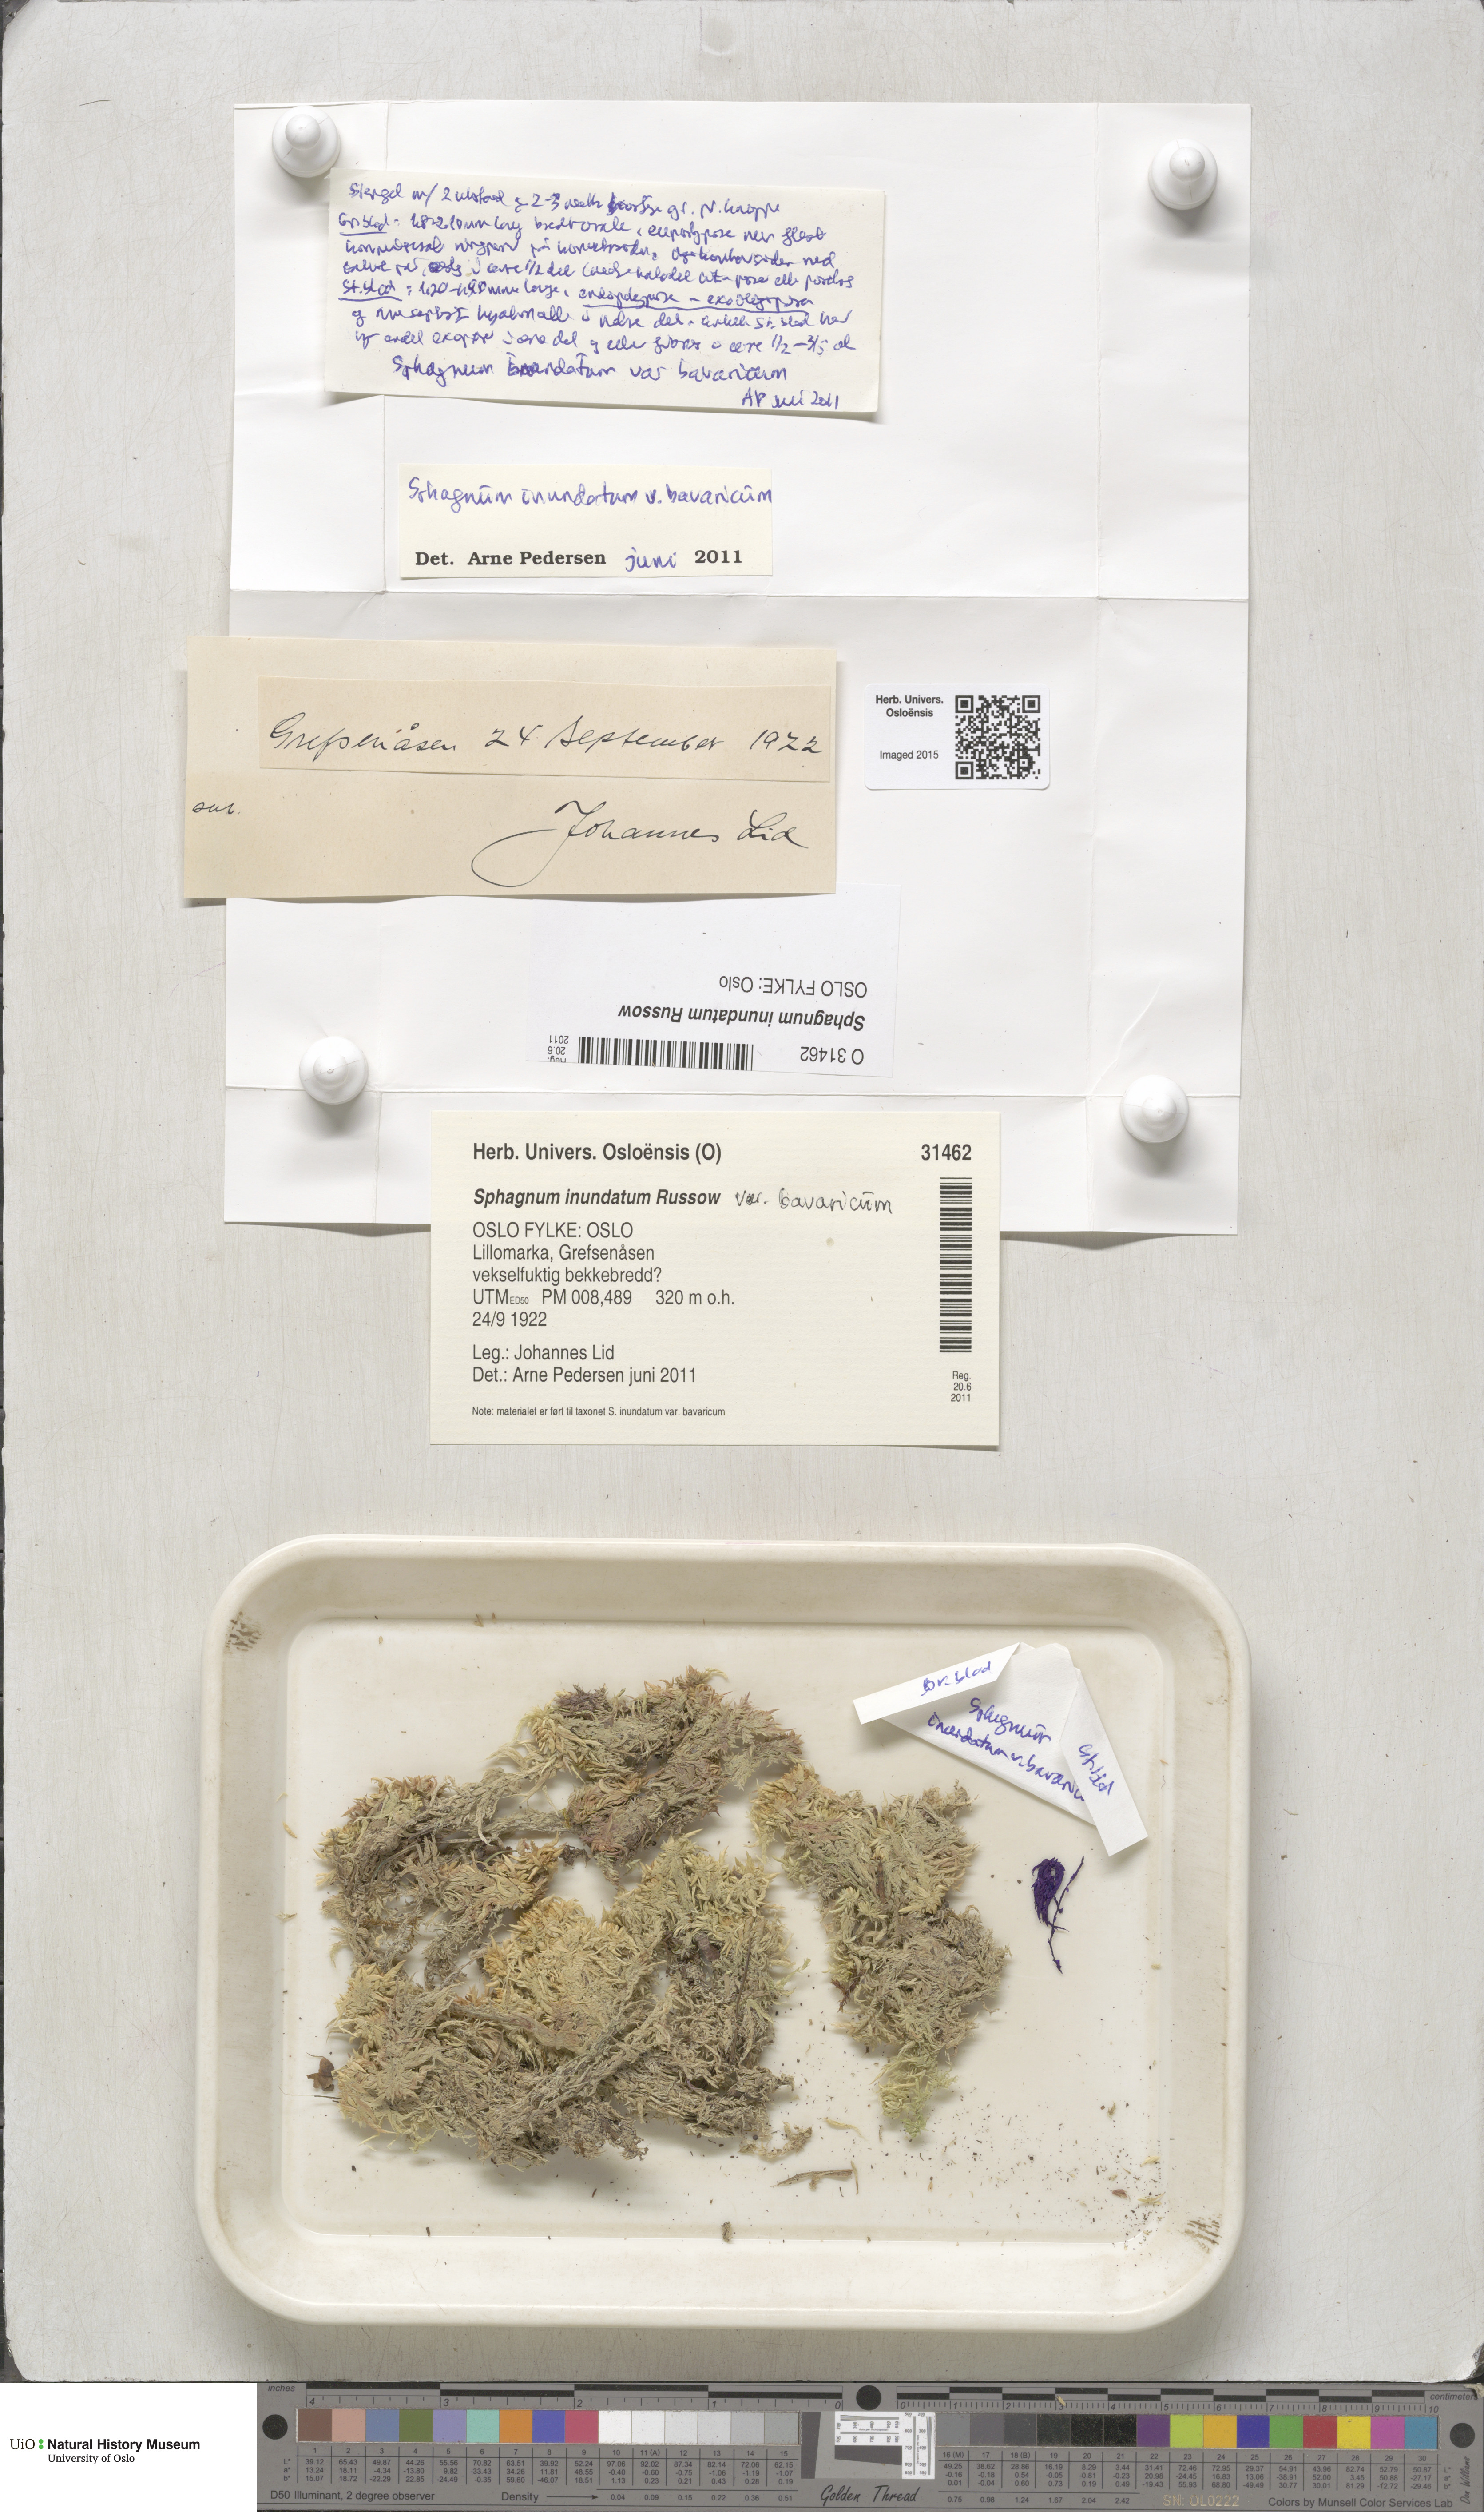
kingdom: Plantae
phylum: Bryophyta
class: Sphagnopsida
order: Sphagnales
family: Sphagnaceae
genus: Sphagnum
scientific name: Sphagnum inundatum
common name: Lesser cow-horn bog-moss
